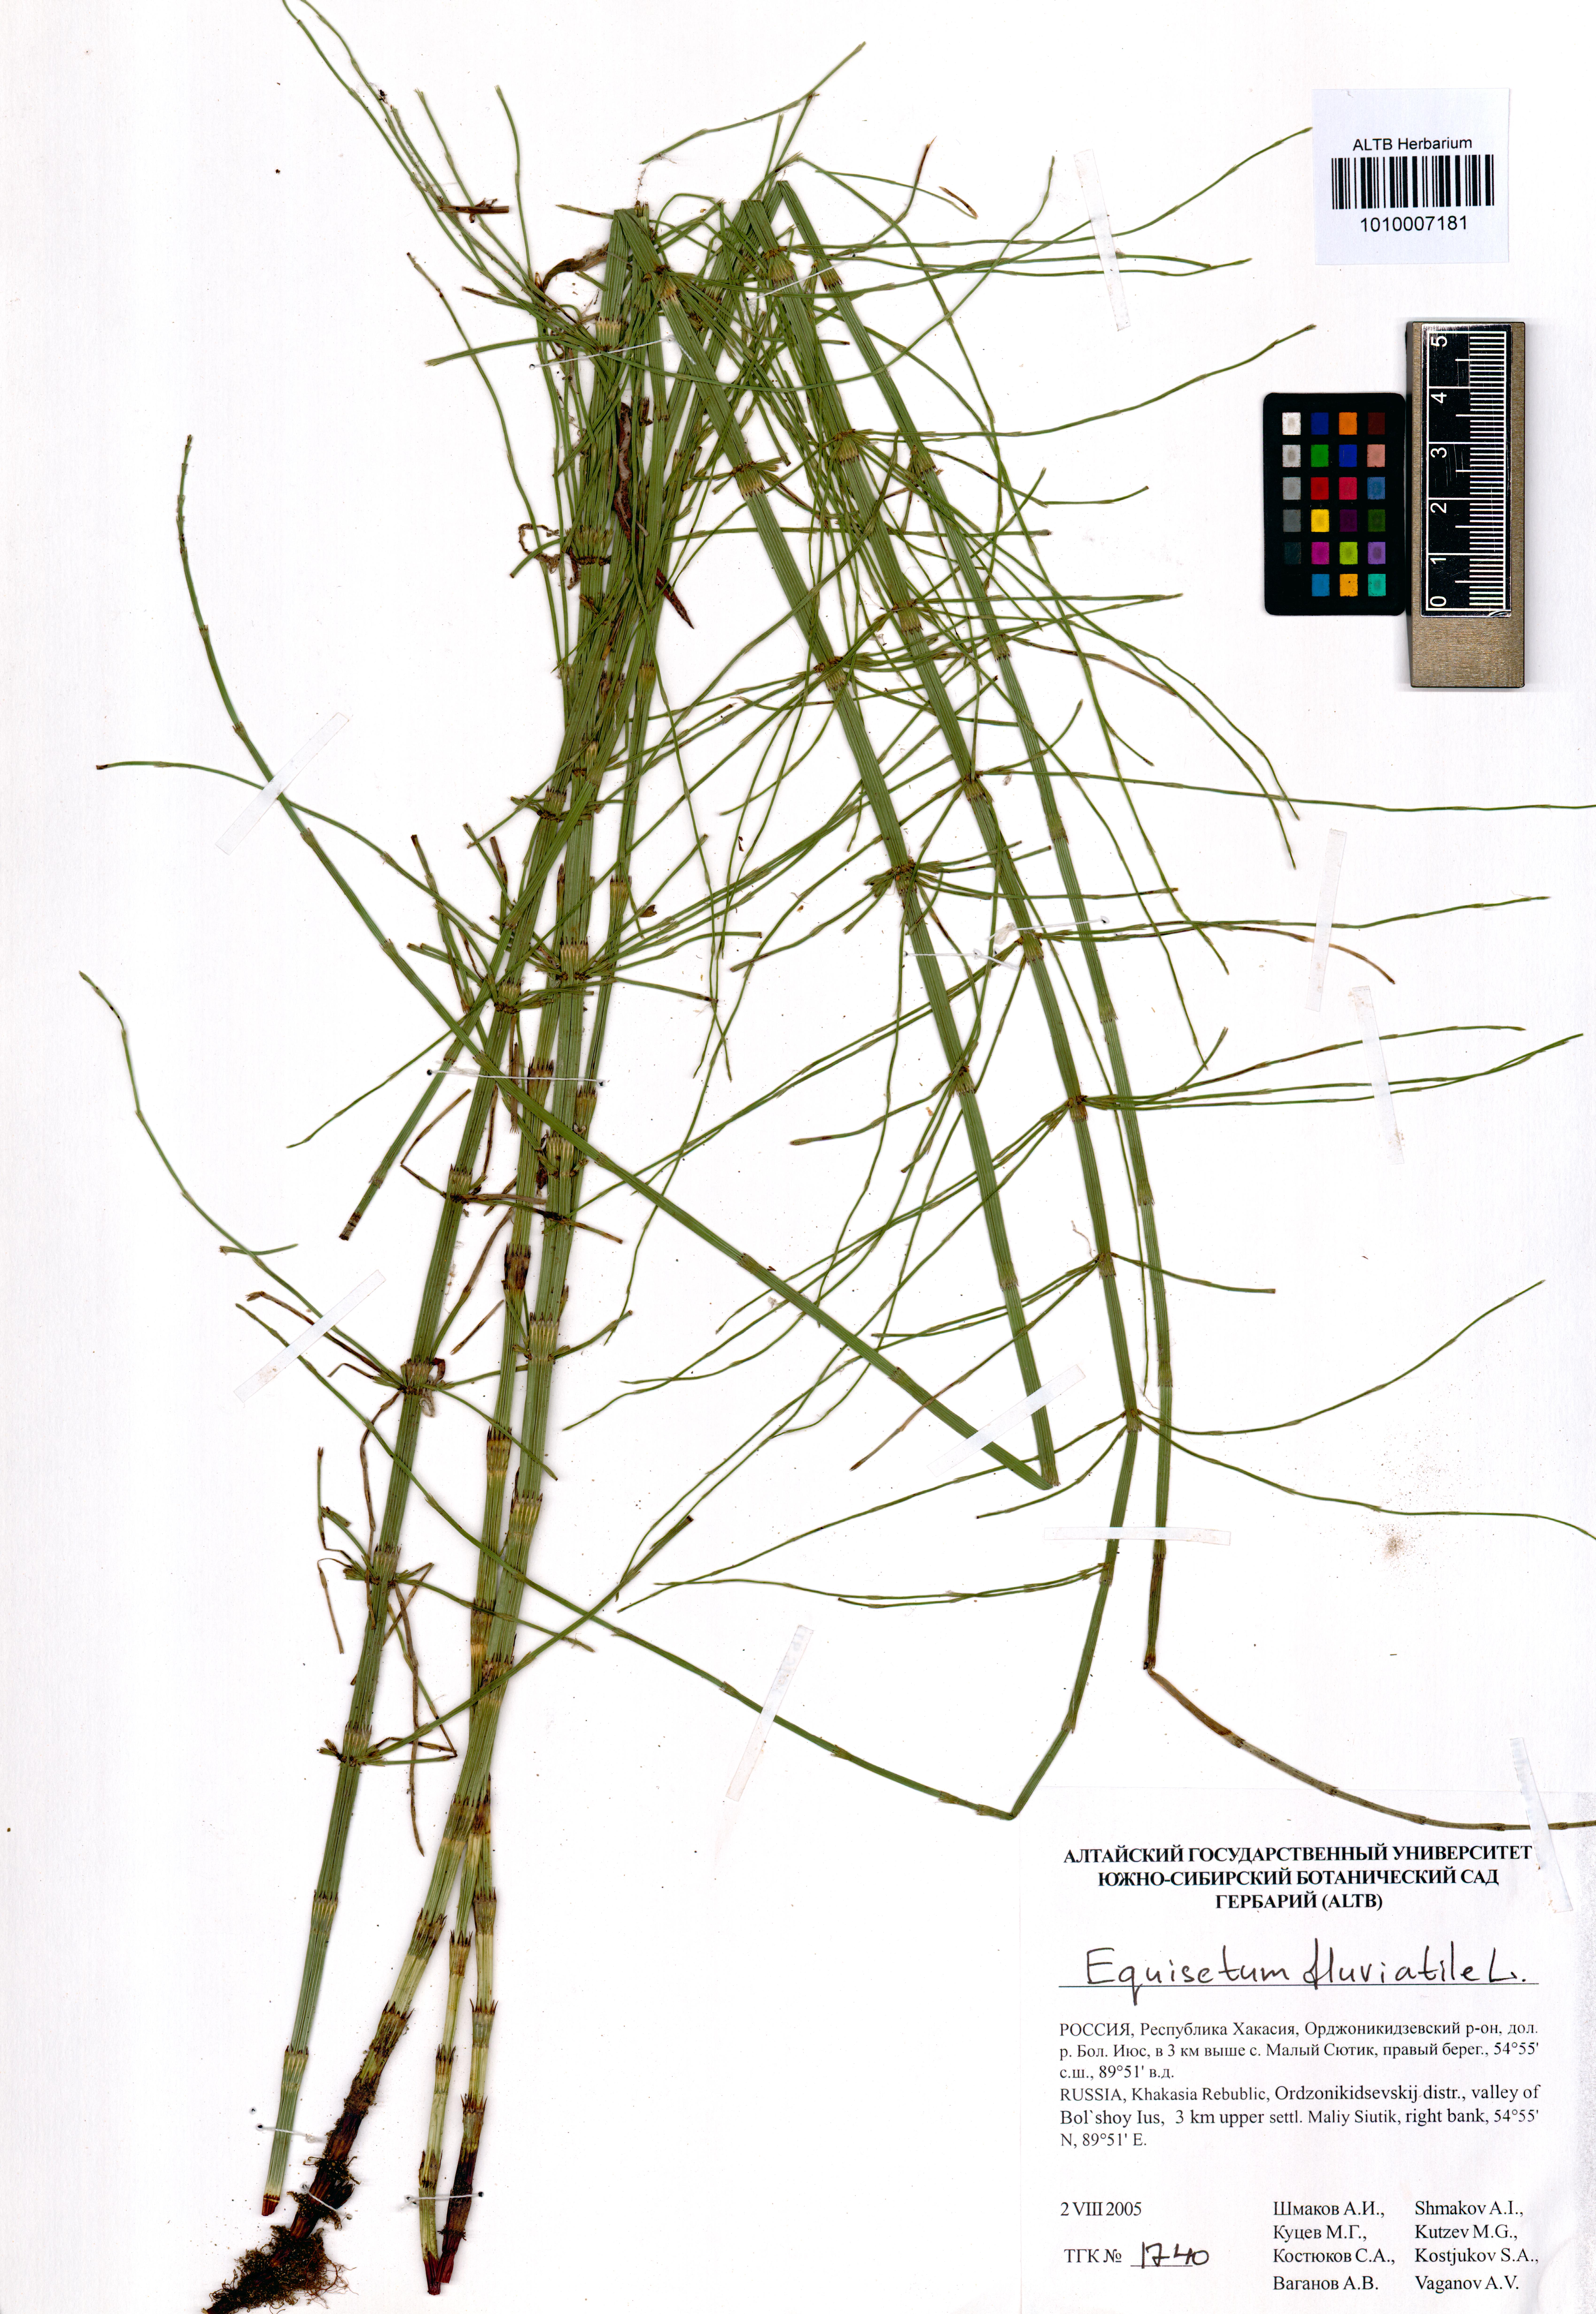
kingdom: Plantae
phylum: Tracheophyta
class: Polypodiopsida
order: Equisetales
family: Equisetaceae
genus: Equisetum
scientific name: Equisetum fluviatile
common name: Water horsetail
